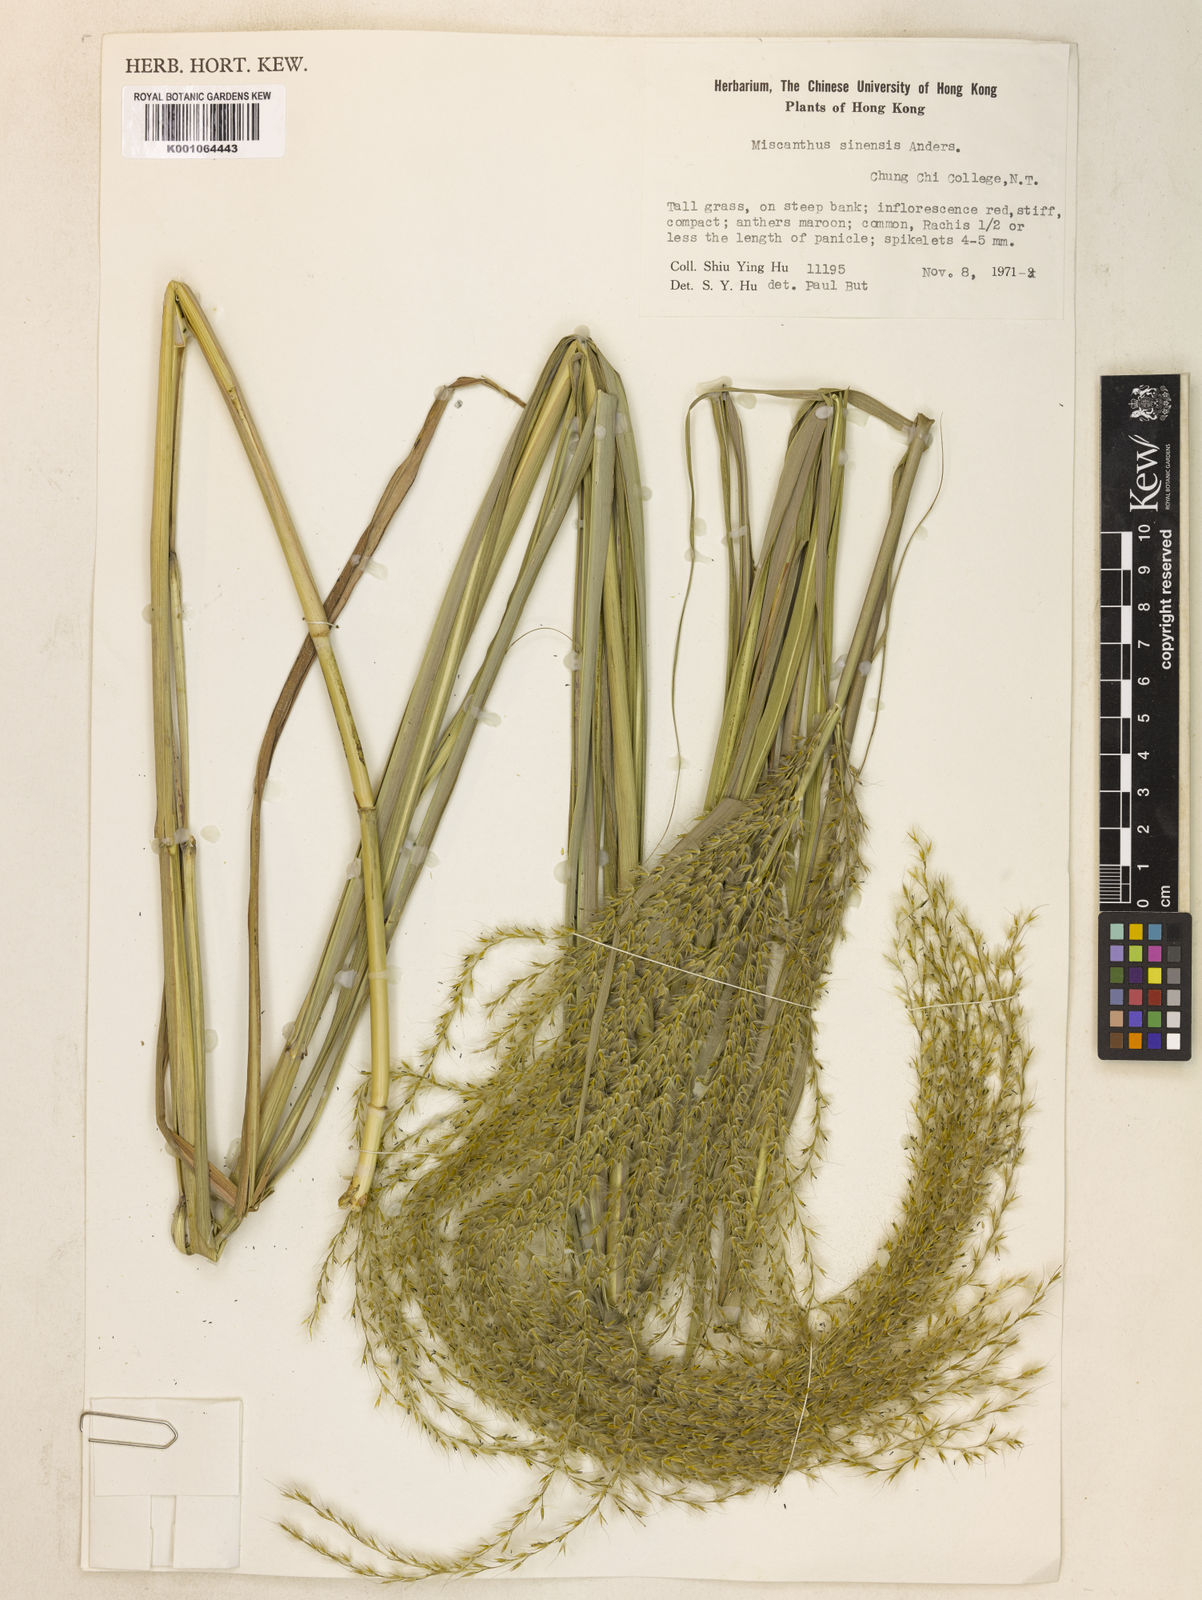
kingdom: Plantae
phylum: Tracheophyta
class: Liliopsida
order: Poales
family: Poaceae
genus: Miscanthus
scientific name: Miscanthus sinensis
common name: Chinese silvergrass
